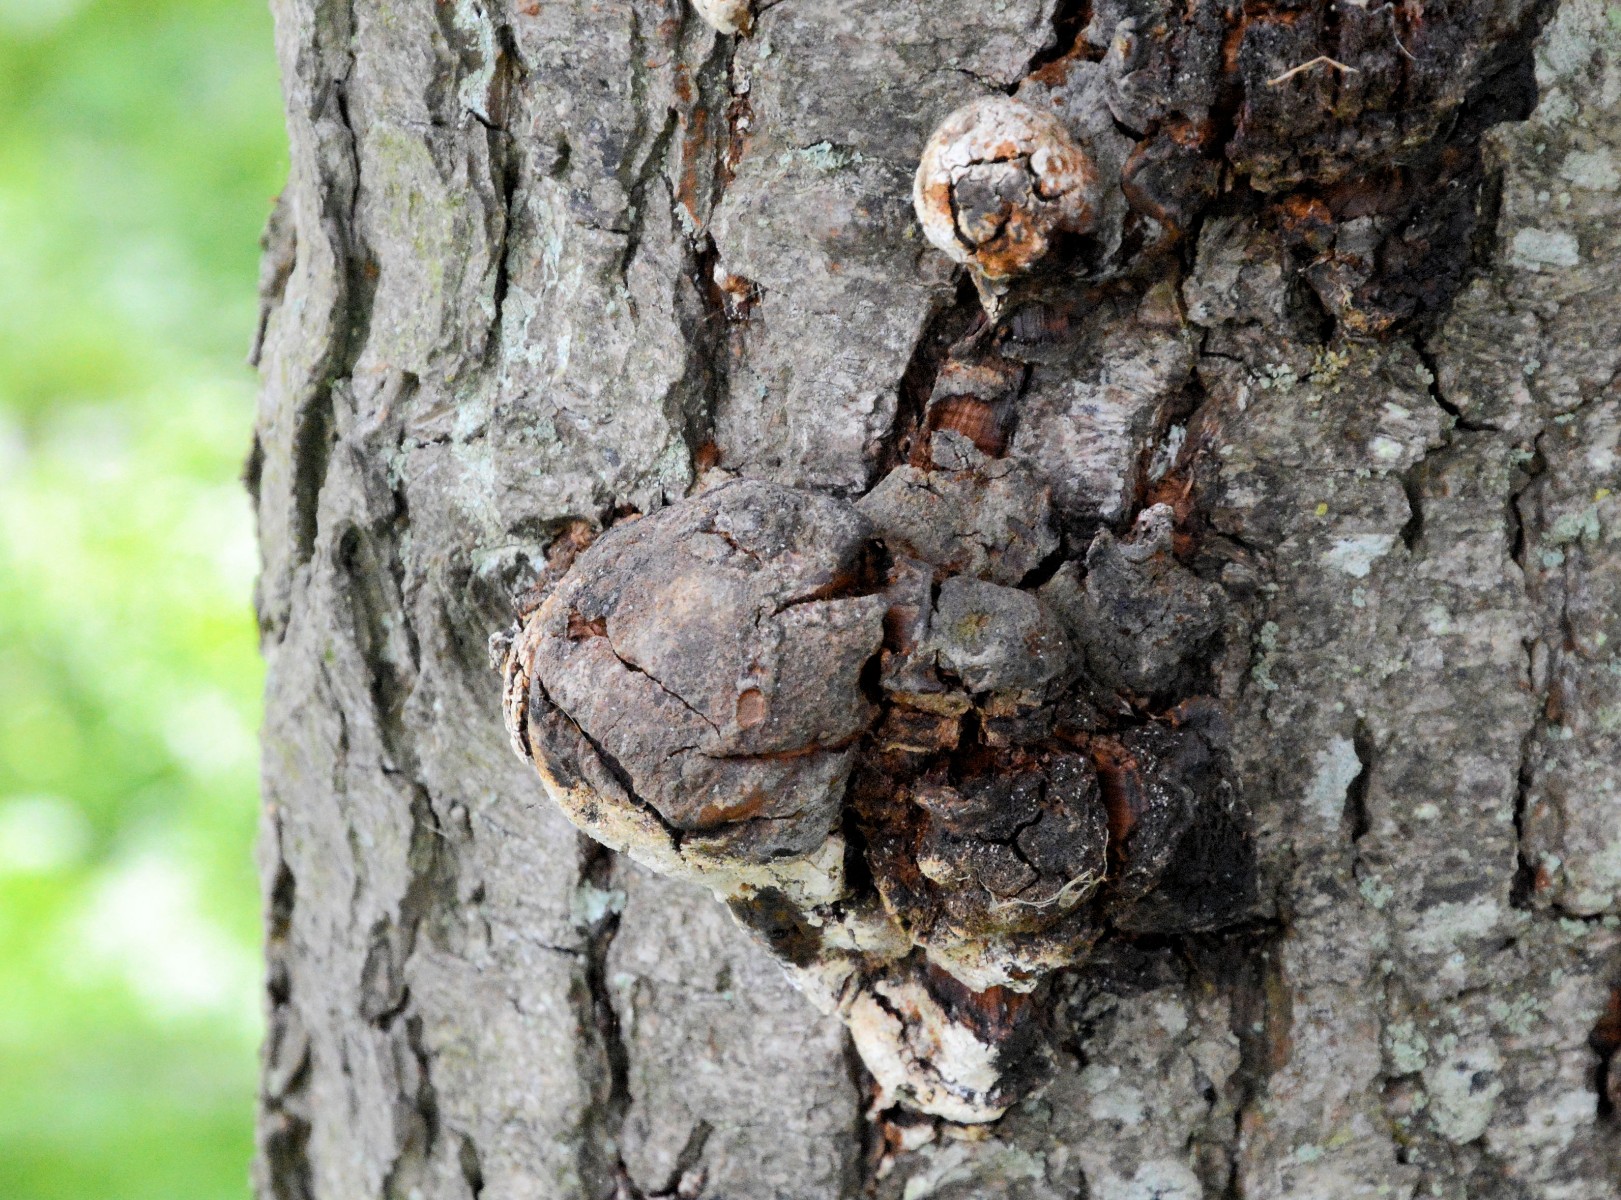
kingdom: Fungi
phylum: Basidiomycota
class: Agaricomycetes
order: Hymenochaetales
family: Hymenochaetaceae
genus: Phellinus
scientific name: Phellinus populicola
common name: poppel-ildporesvamp
